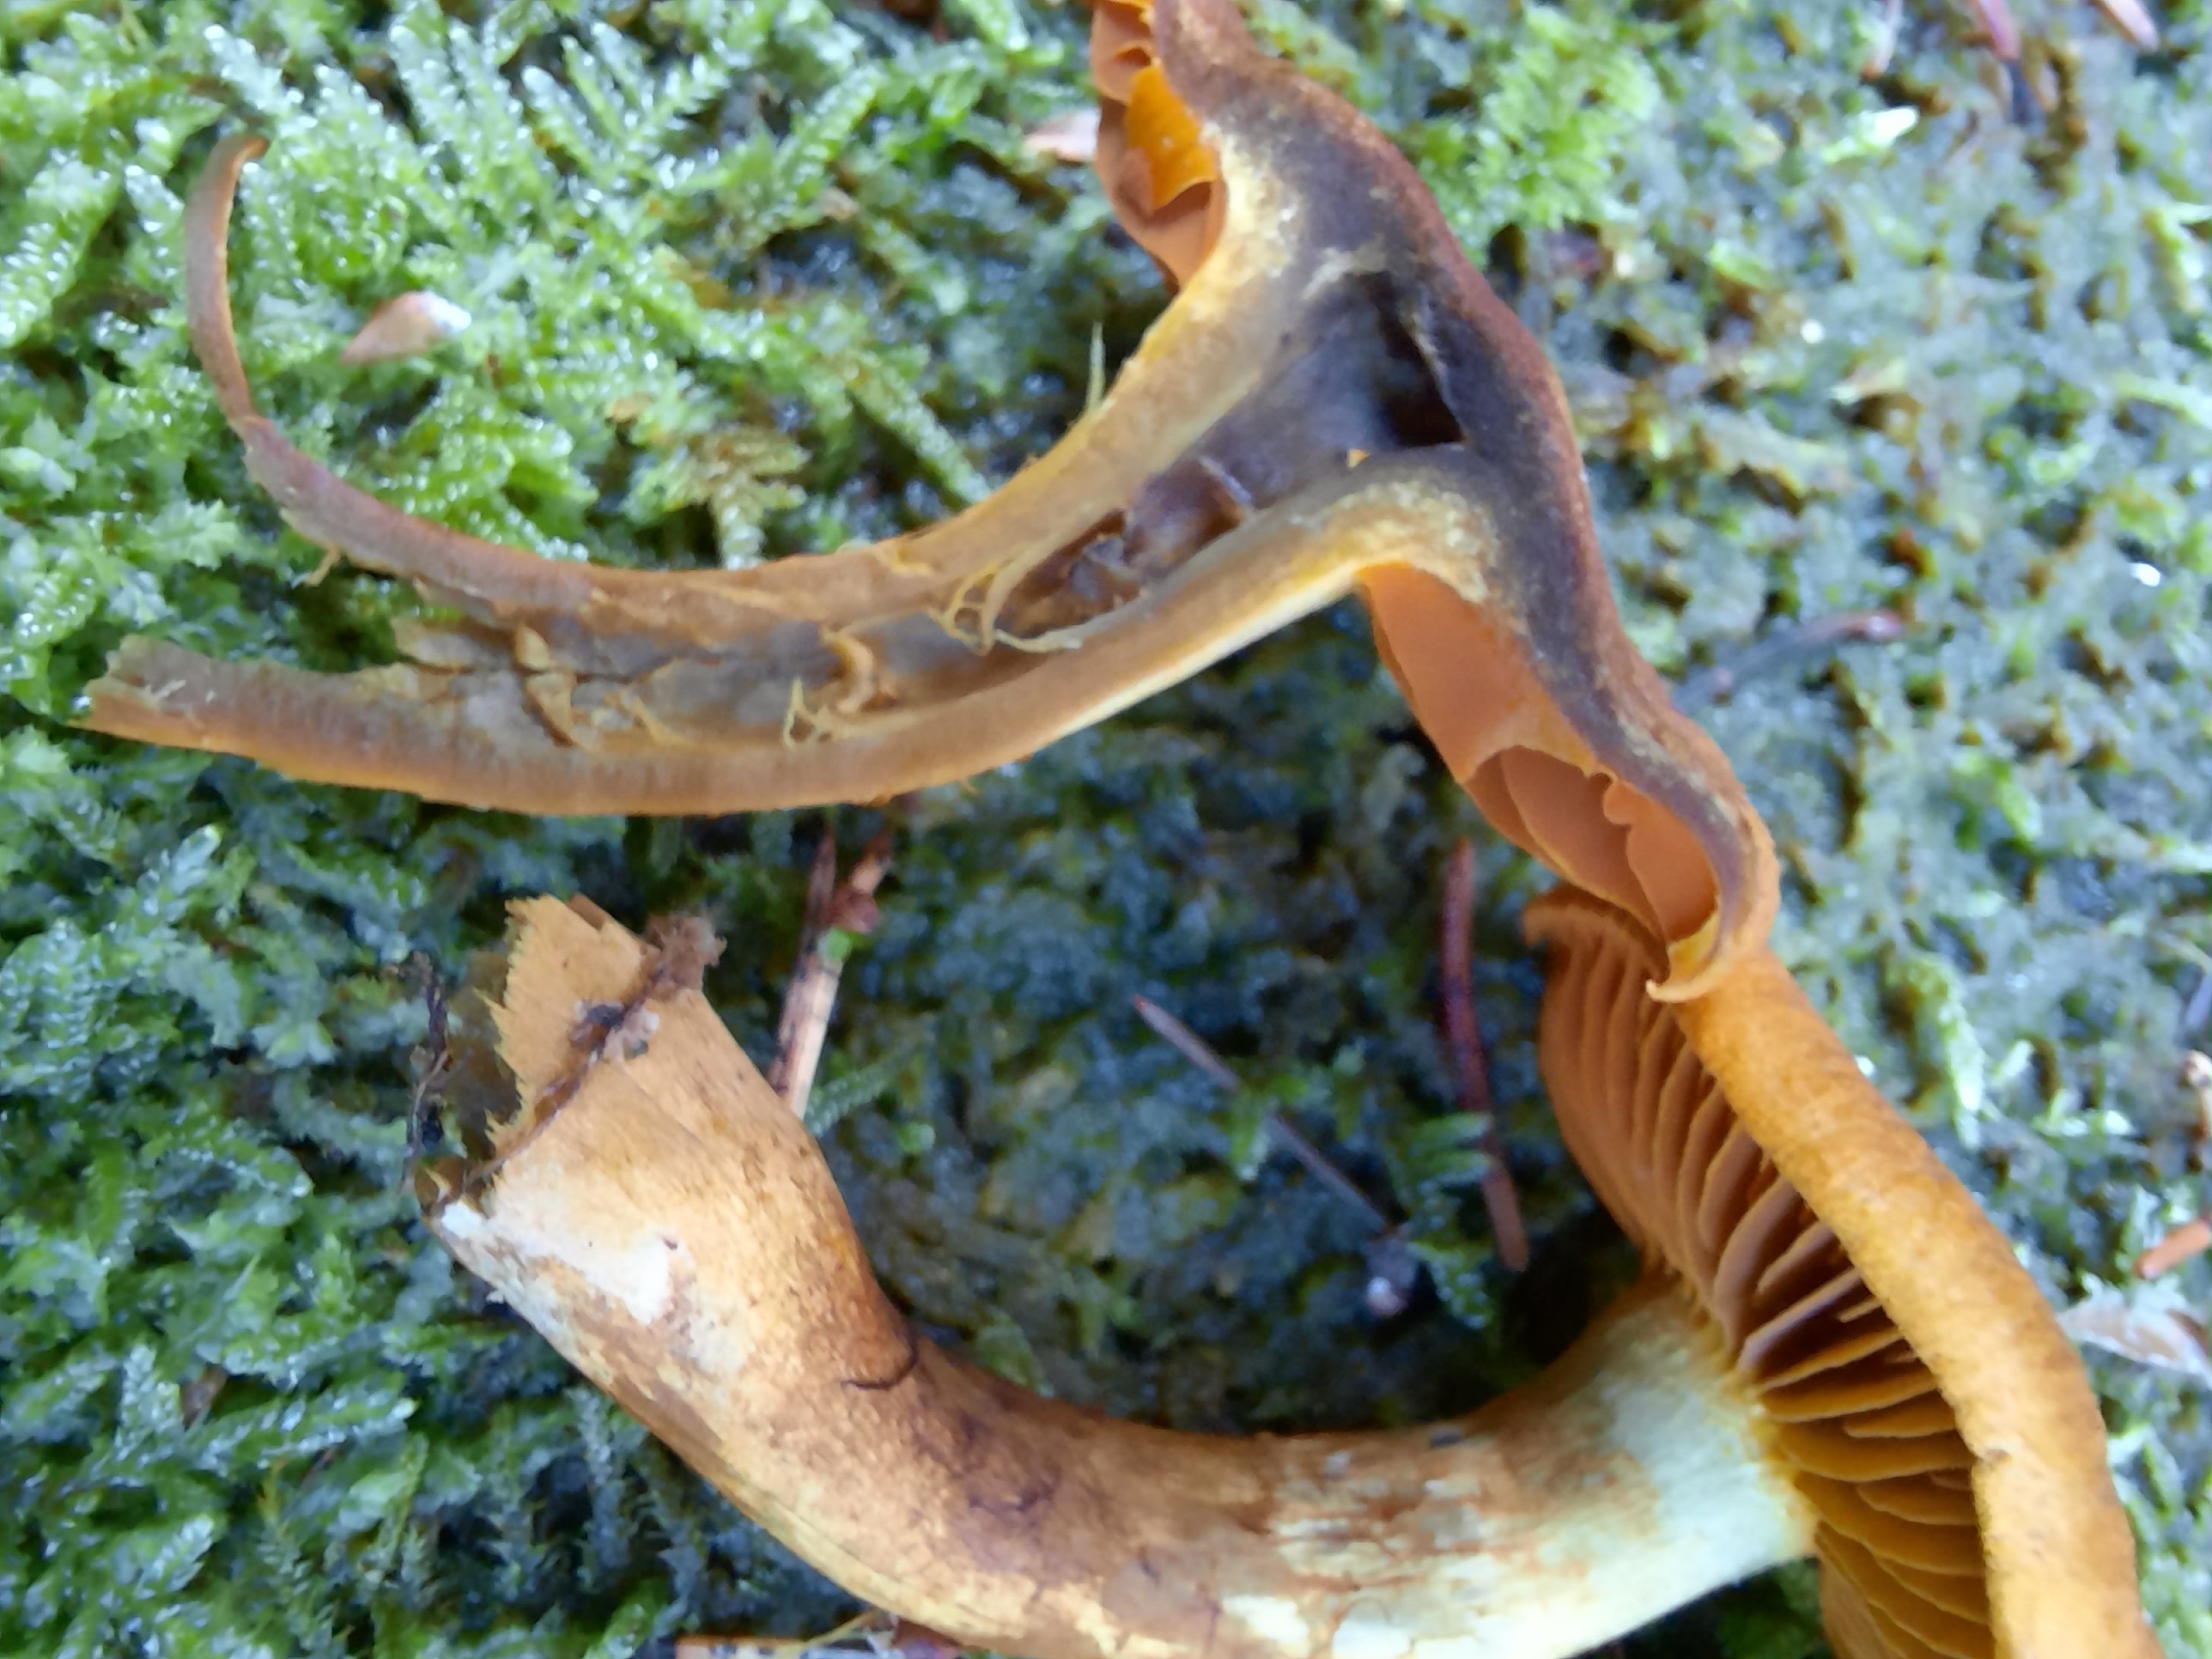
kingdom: Fungi
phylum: Basidiomycota
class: Agaricomycetes
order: Agaricales
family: Cortinariaceae
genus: Cortinarius
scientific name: Cortinarius malicorius
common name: grønkødet slørhat
